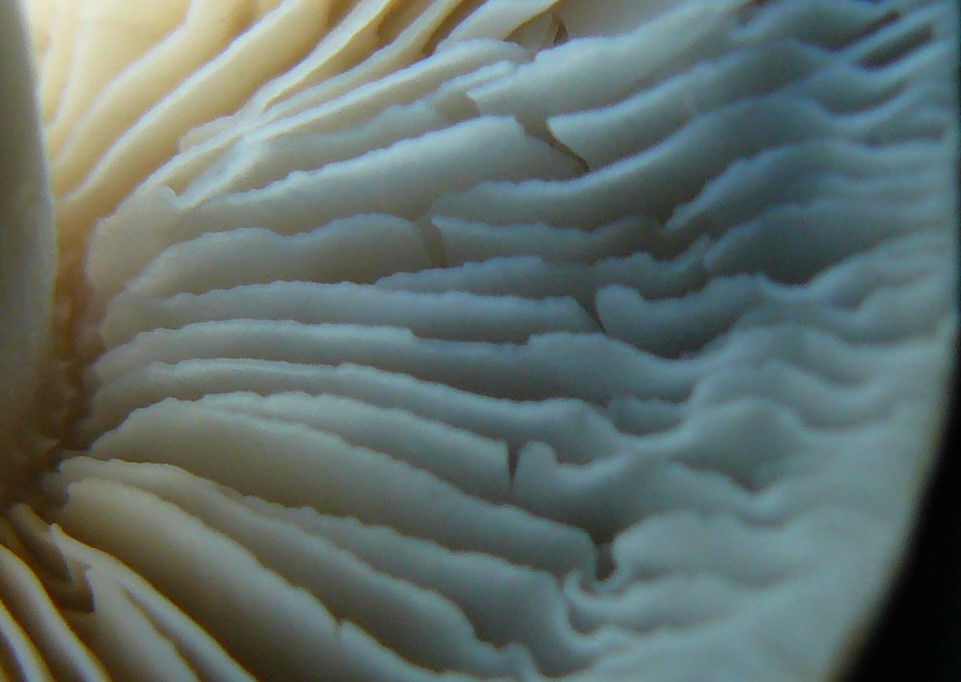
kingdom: Fungi
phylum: Basidiomycota
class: Agaricomycetes
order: Agaricales
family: Tricholomataceae
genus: Tricholoma
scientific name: Tricholoma argyraceum
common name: spids ridderhat
